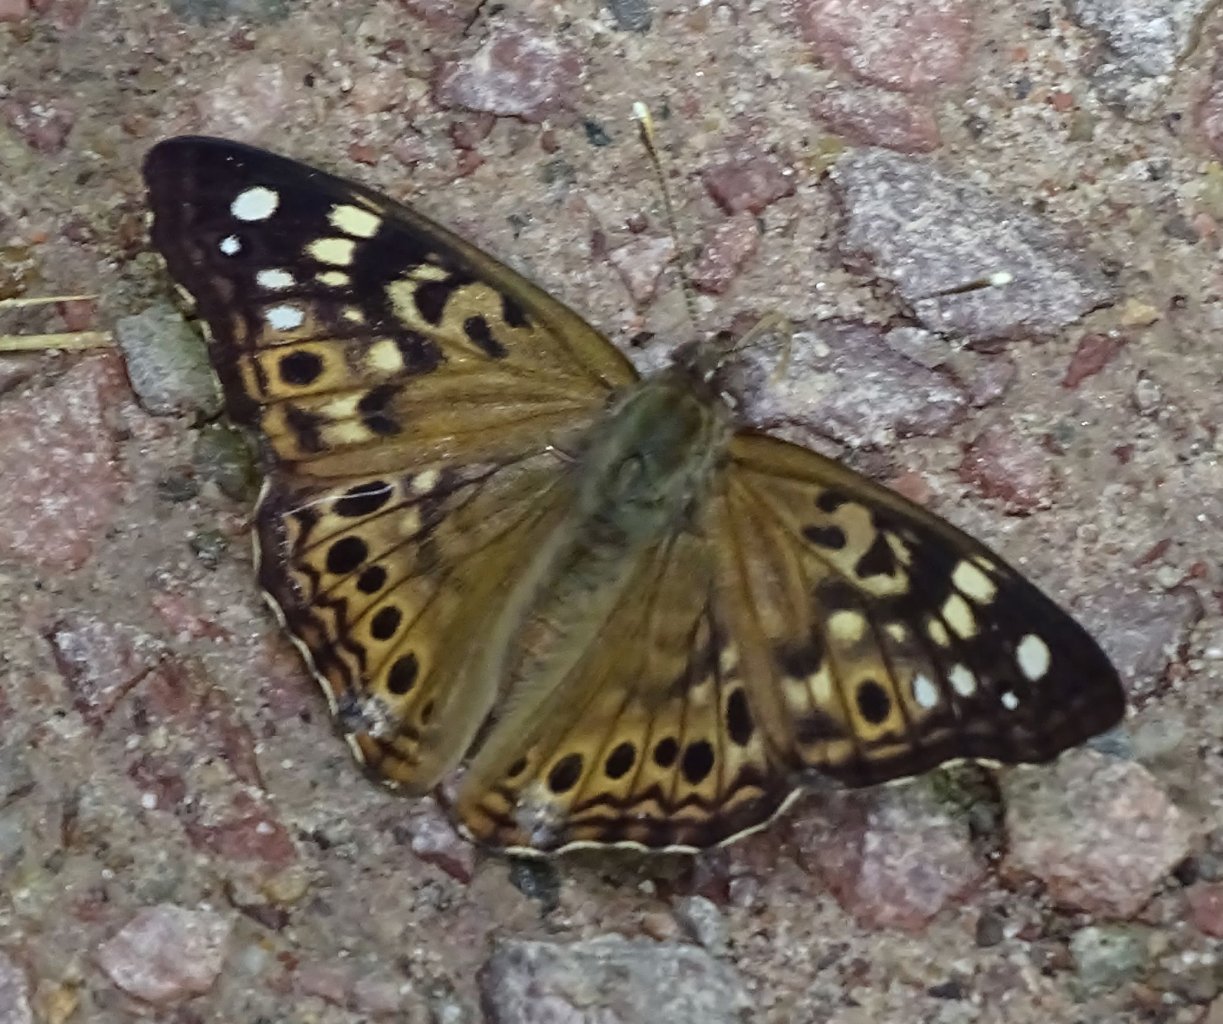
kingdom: Animalia
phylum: Arthropoda
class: Insecta
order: Lepidoptera
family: Nymphalidae
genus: Asterocampa
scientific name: Asterocampa celtis
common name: Hackberry Emperor
